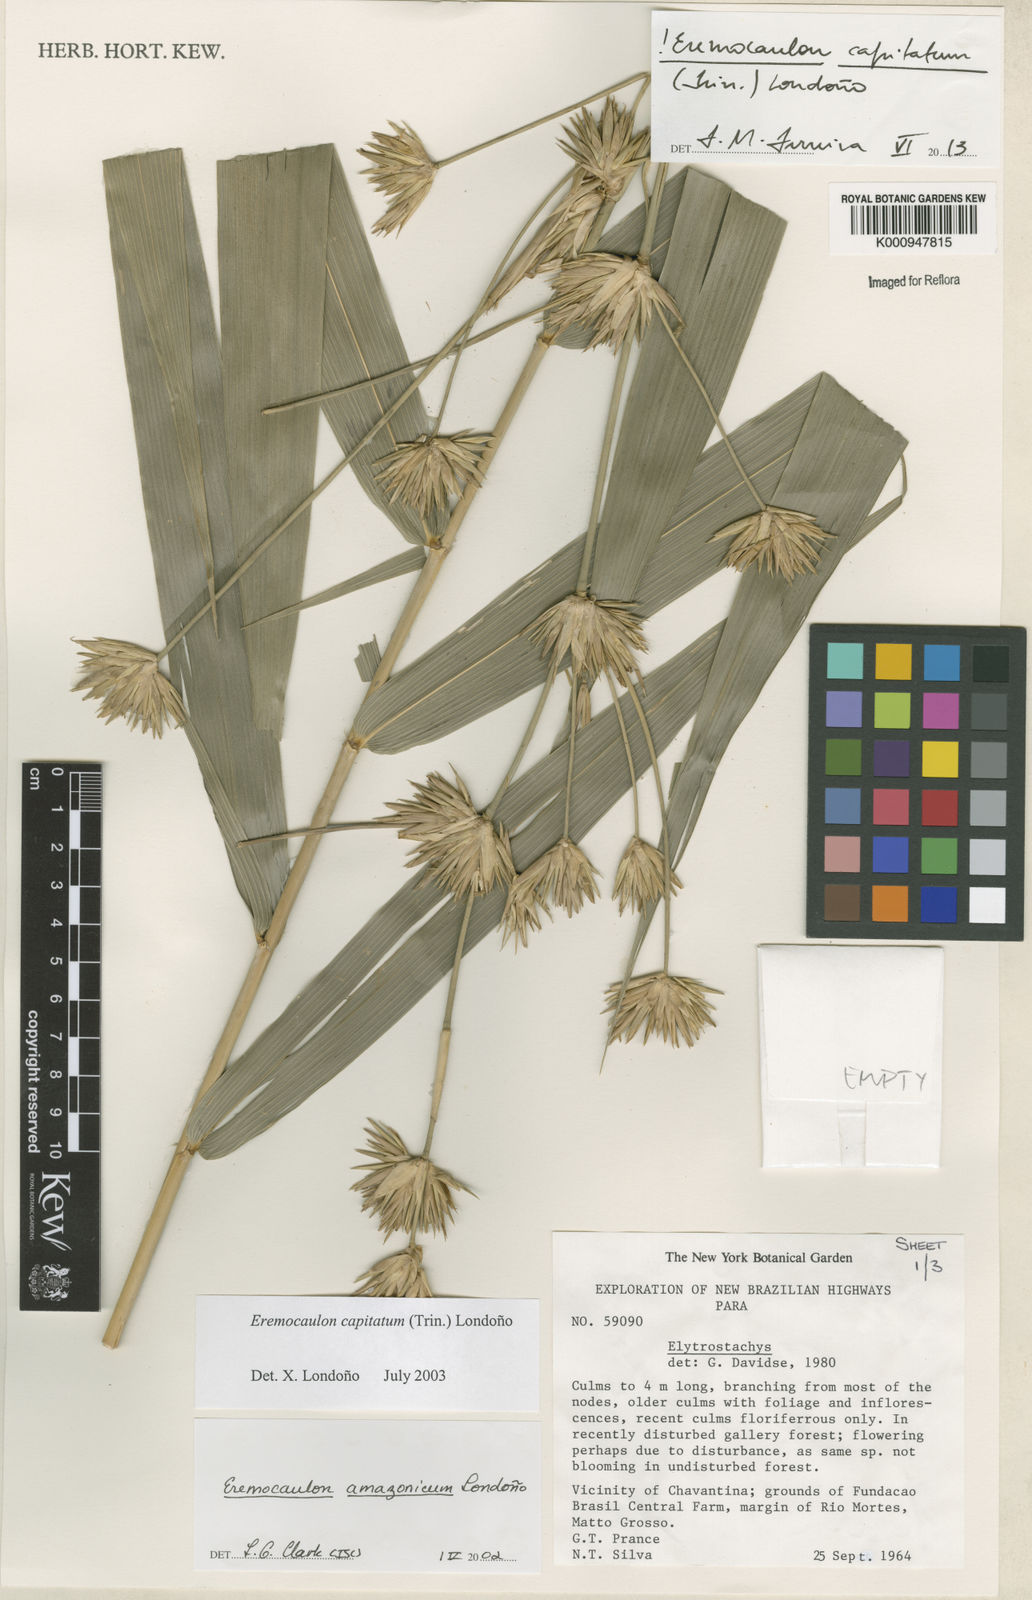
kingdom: Plantae
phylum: Tracheophyta
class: Liliopsida
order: Poales
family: Poaceae
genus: Eremocaulon
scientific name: Eremocaulon
